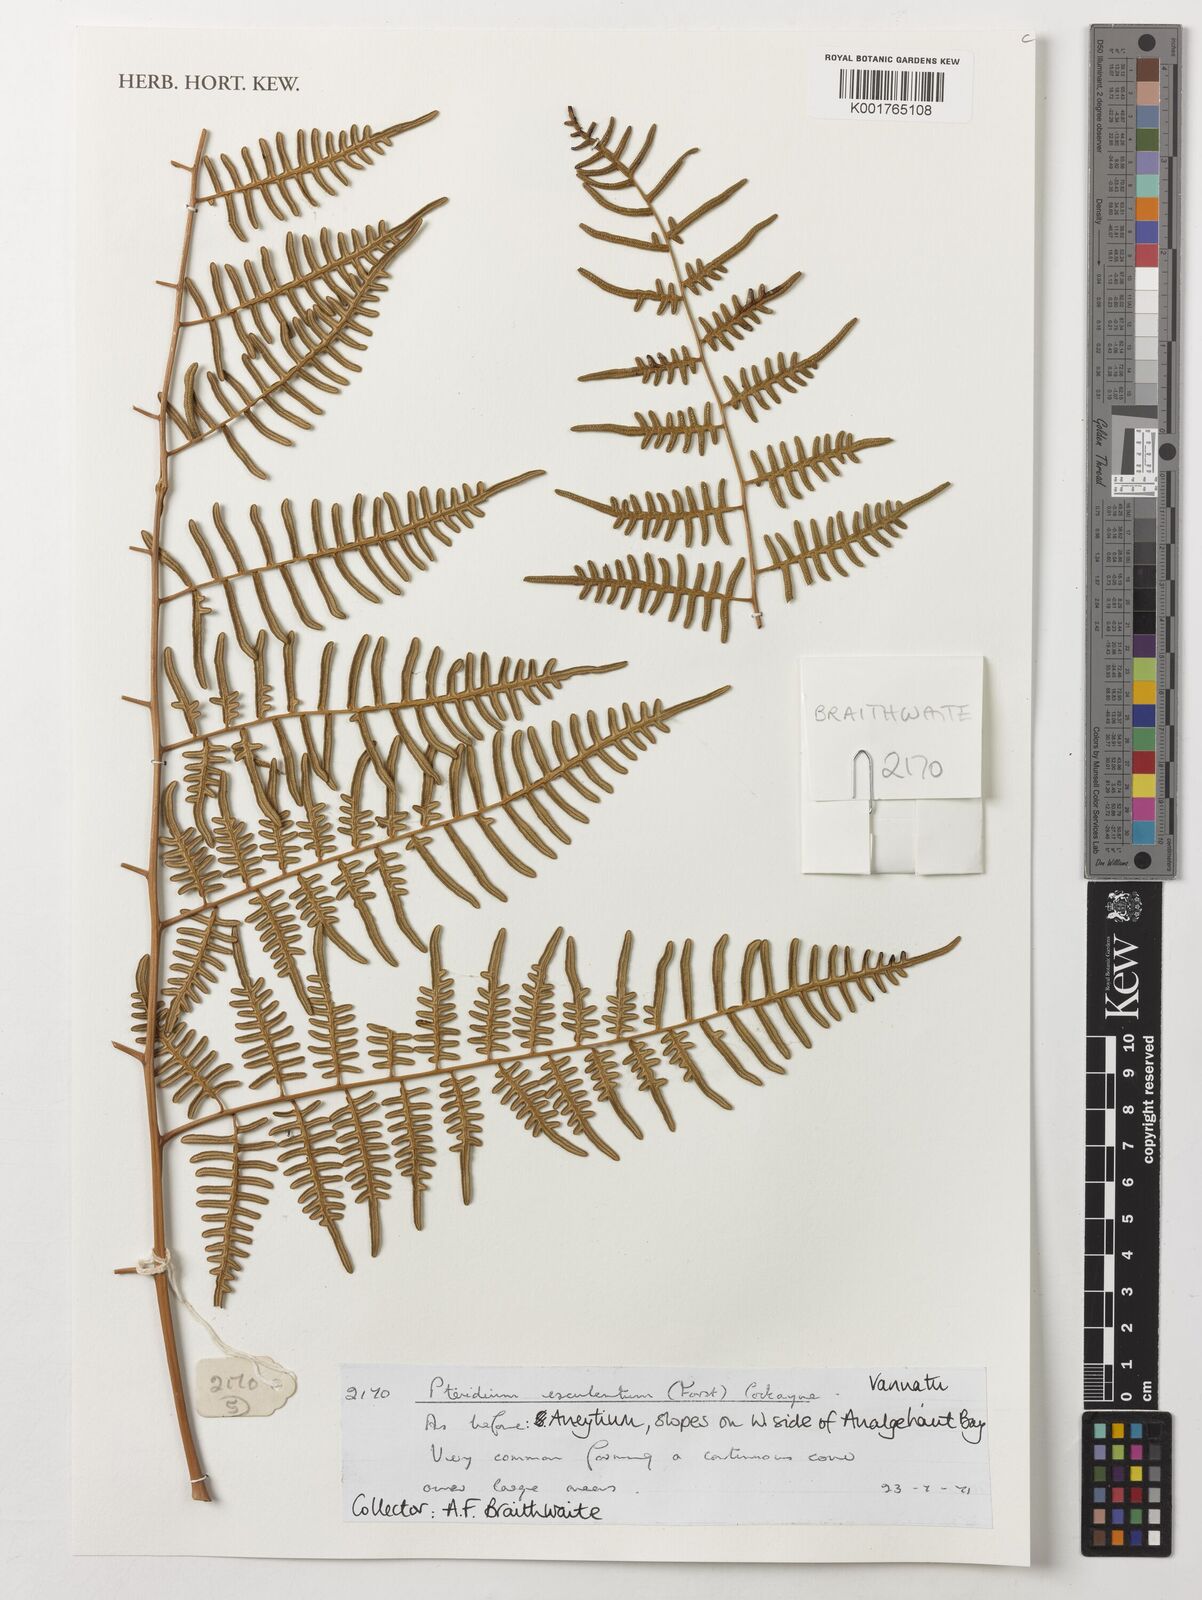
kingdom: Plantae
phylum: Tracheophyta
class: Polypodiopsida
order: Polypodiales
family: Dennstaedtiaceae
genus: Pteridium
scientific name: Pteridium esculentum
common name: Bracken fern
